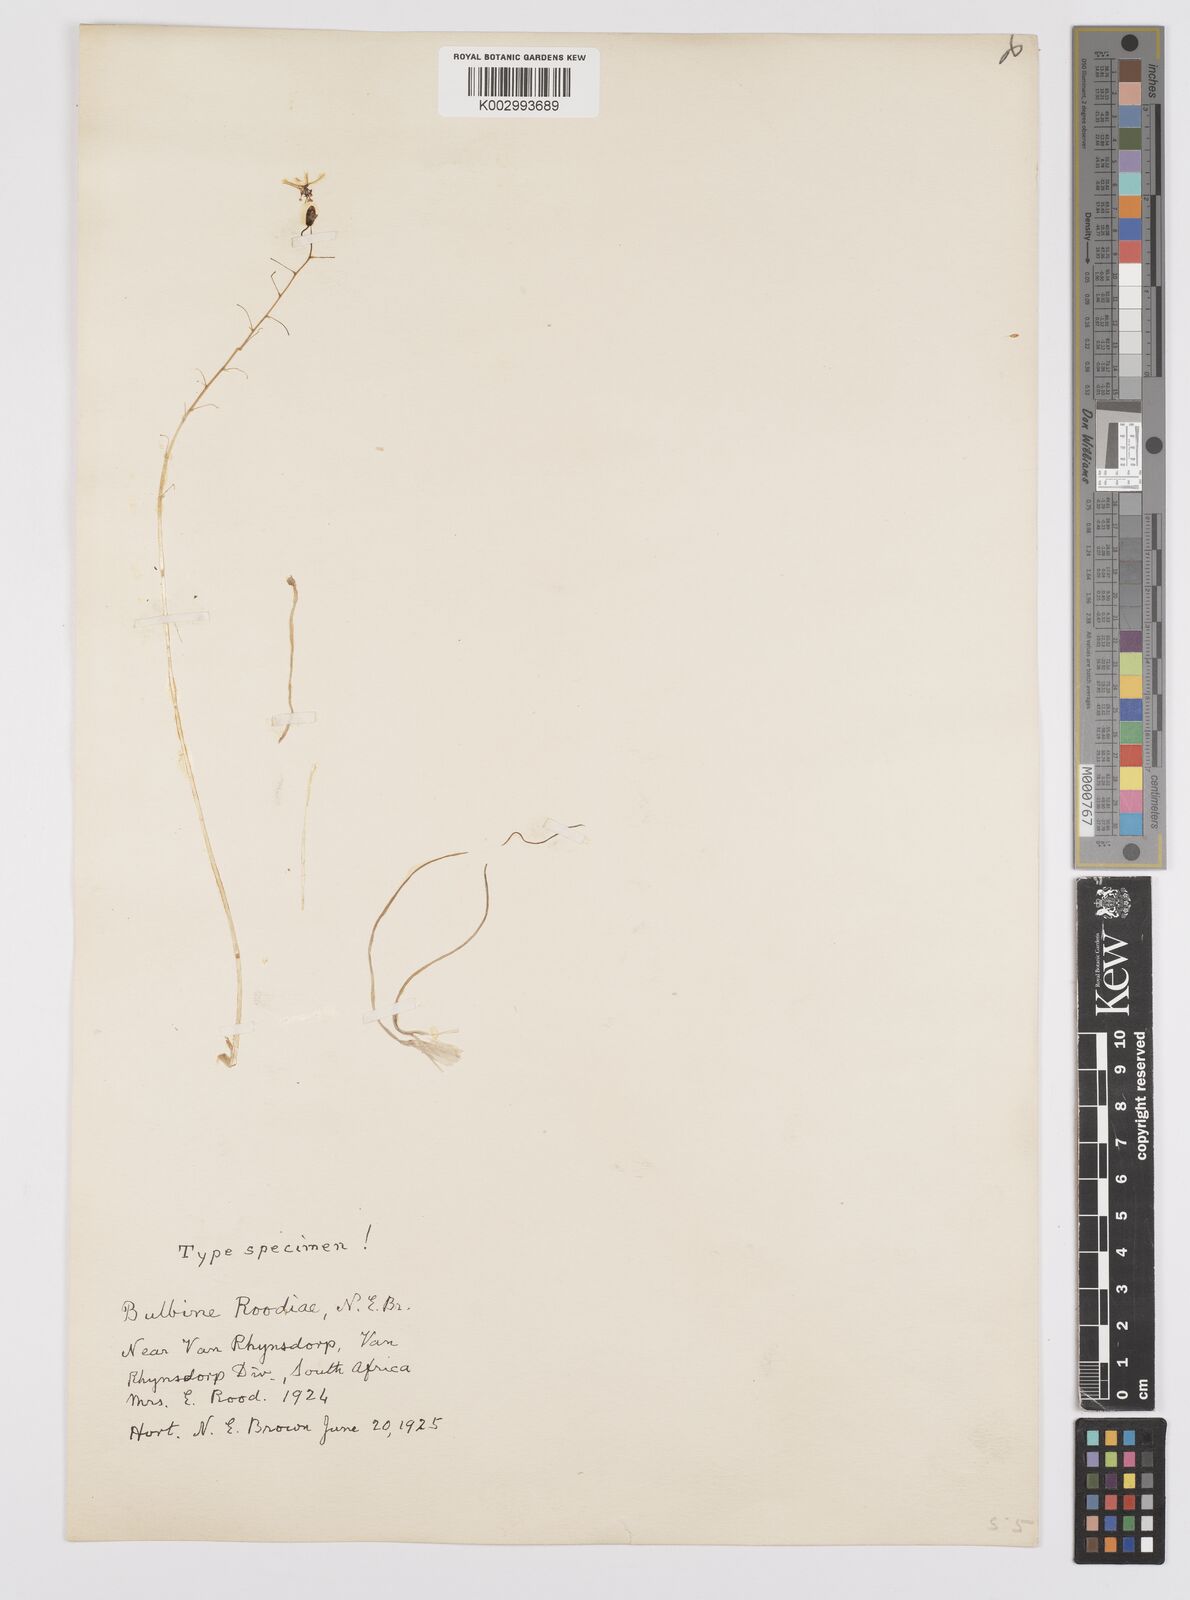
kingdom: Plantae
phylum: Tracheophyta
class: Liliopsida
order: Asparagales
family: Asphodelaceae
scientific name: Asphodelaceae
